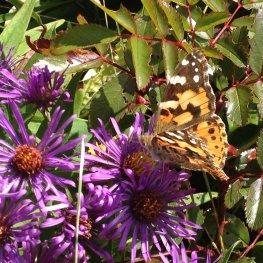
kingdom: Animalia
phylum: Arthropoda
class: Insecta
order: Lepidoptera
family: Nymphalidae
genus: Vanessa
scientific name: Vanessa cardui
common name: Painted Lady
